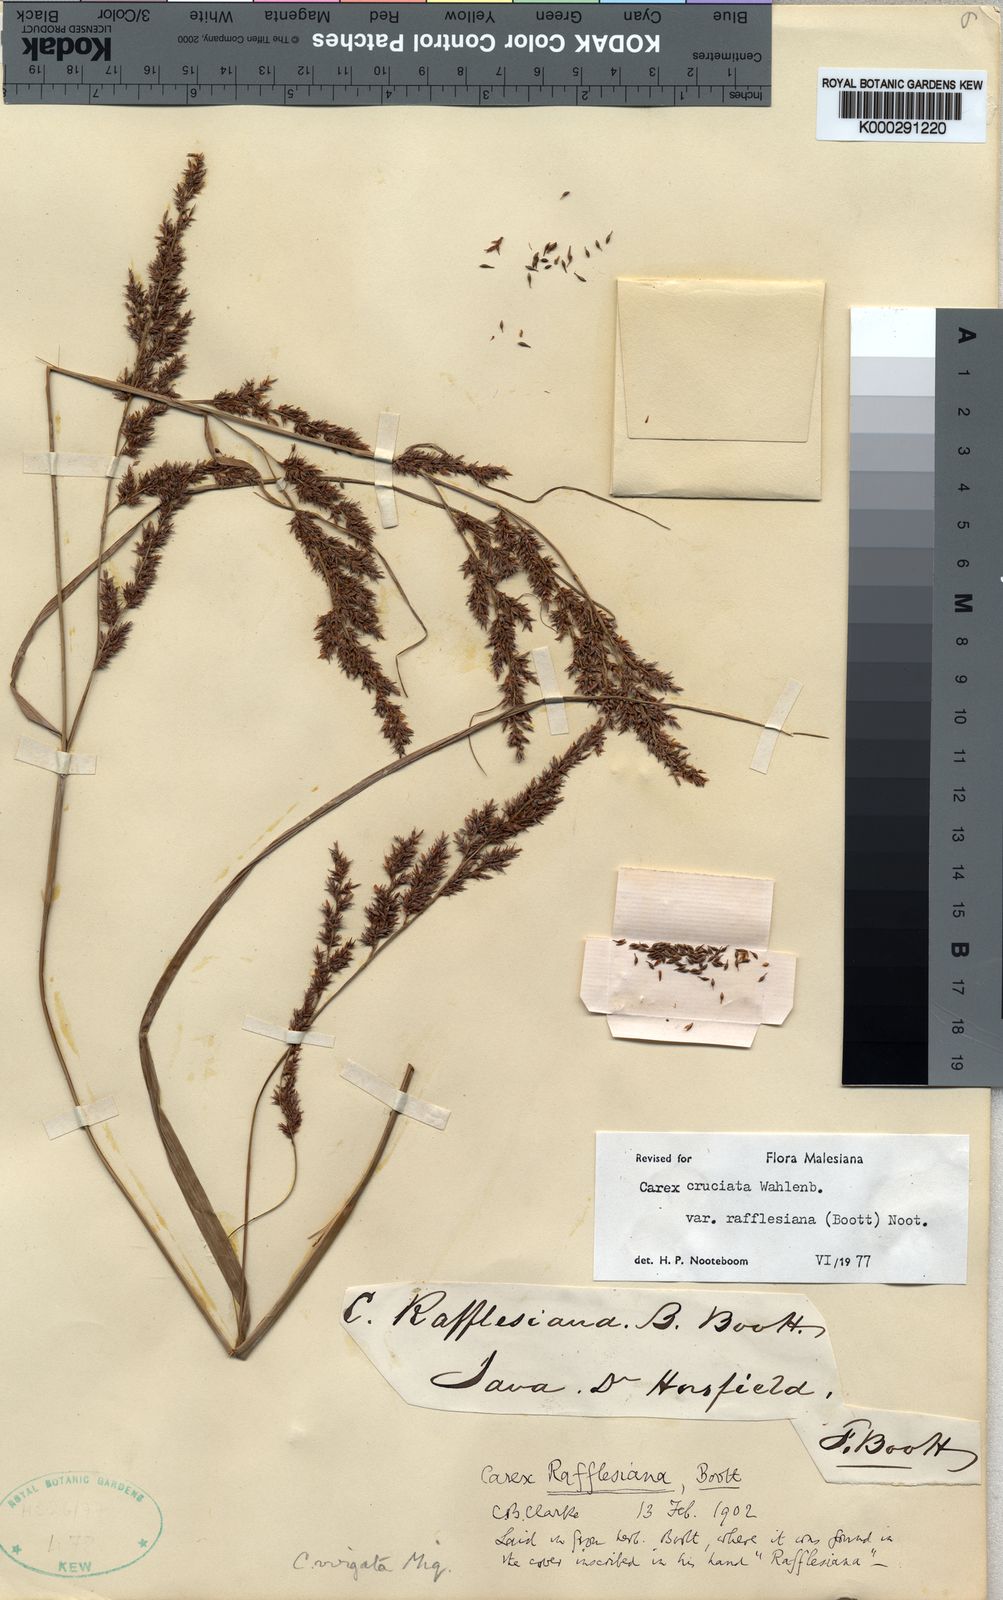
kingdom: Plantae
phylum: Tracheophyta
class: Liliopsida
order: Poales
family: Cyperaceae
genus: Carex
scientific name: Carex rafflesiana
